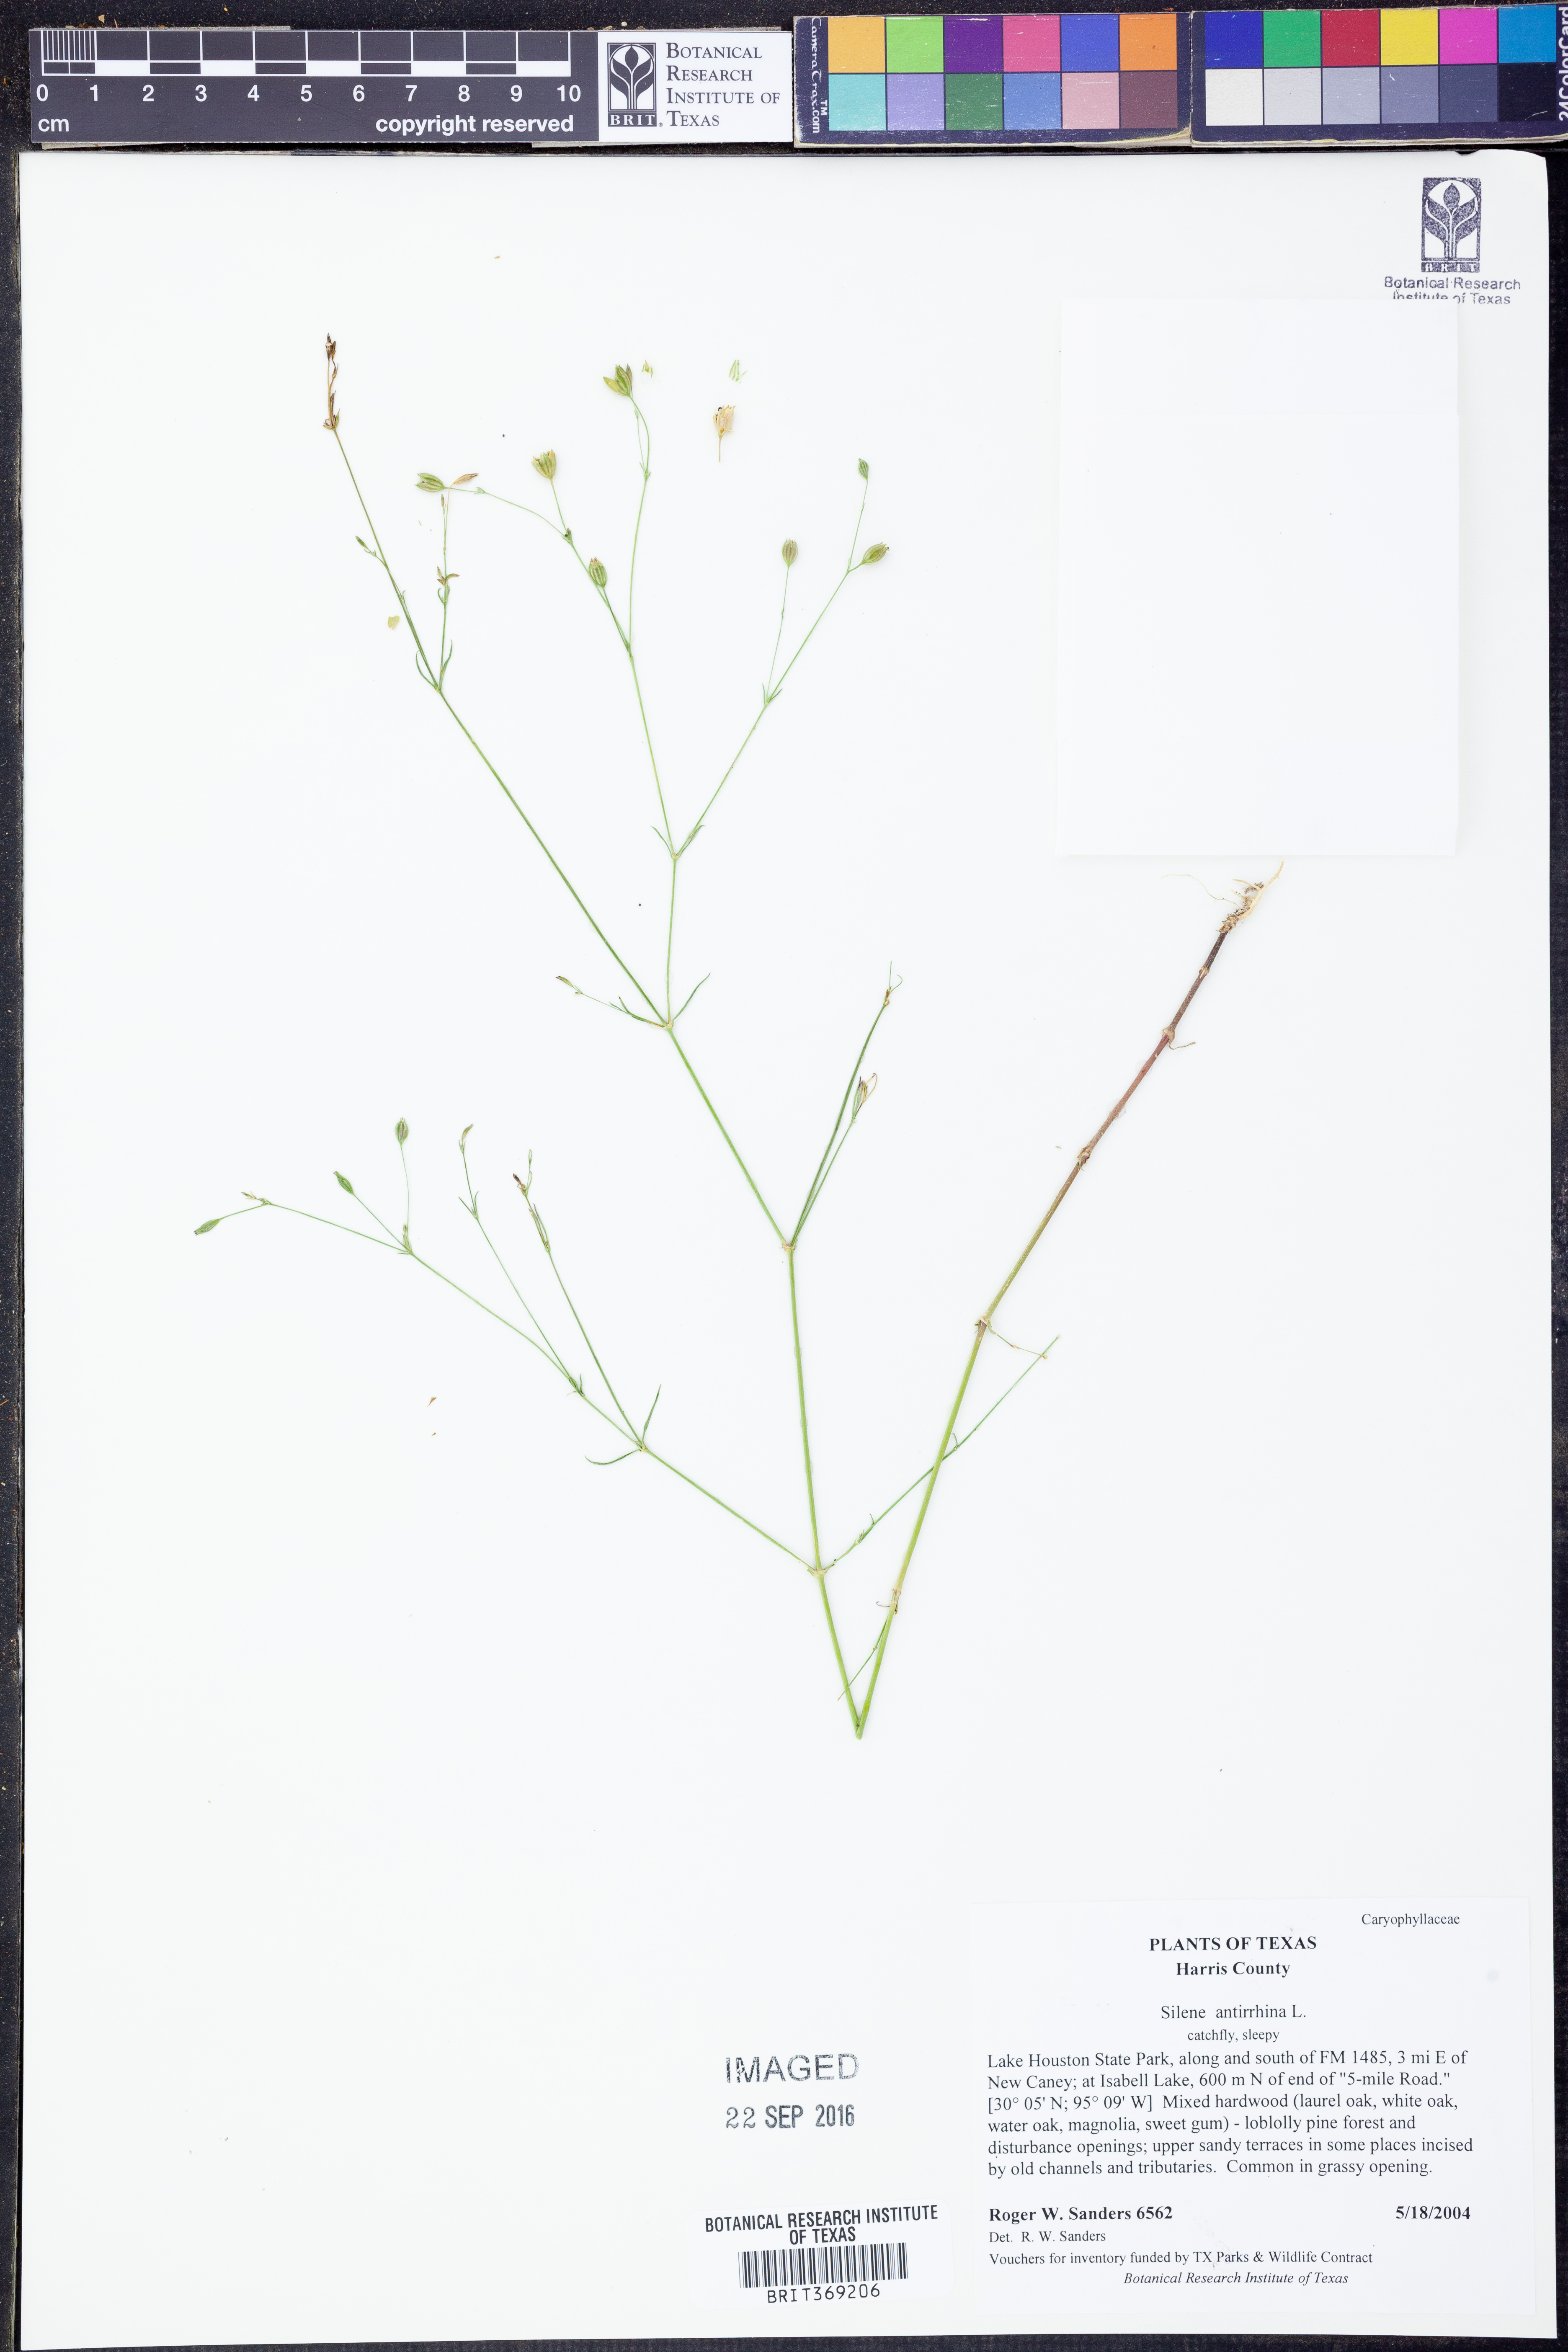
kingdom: Plantae
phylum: Tracheophyta
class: Magnoliopsida
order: Caryophyllales
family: Caryophyllaceae
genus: Silene
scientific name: Silene antirrhina
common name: Sleepy catchfly
